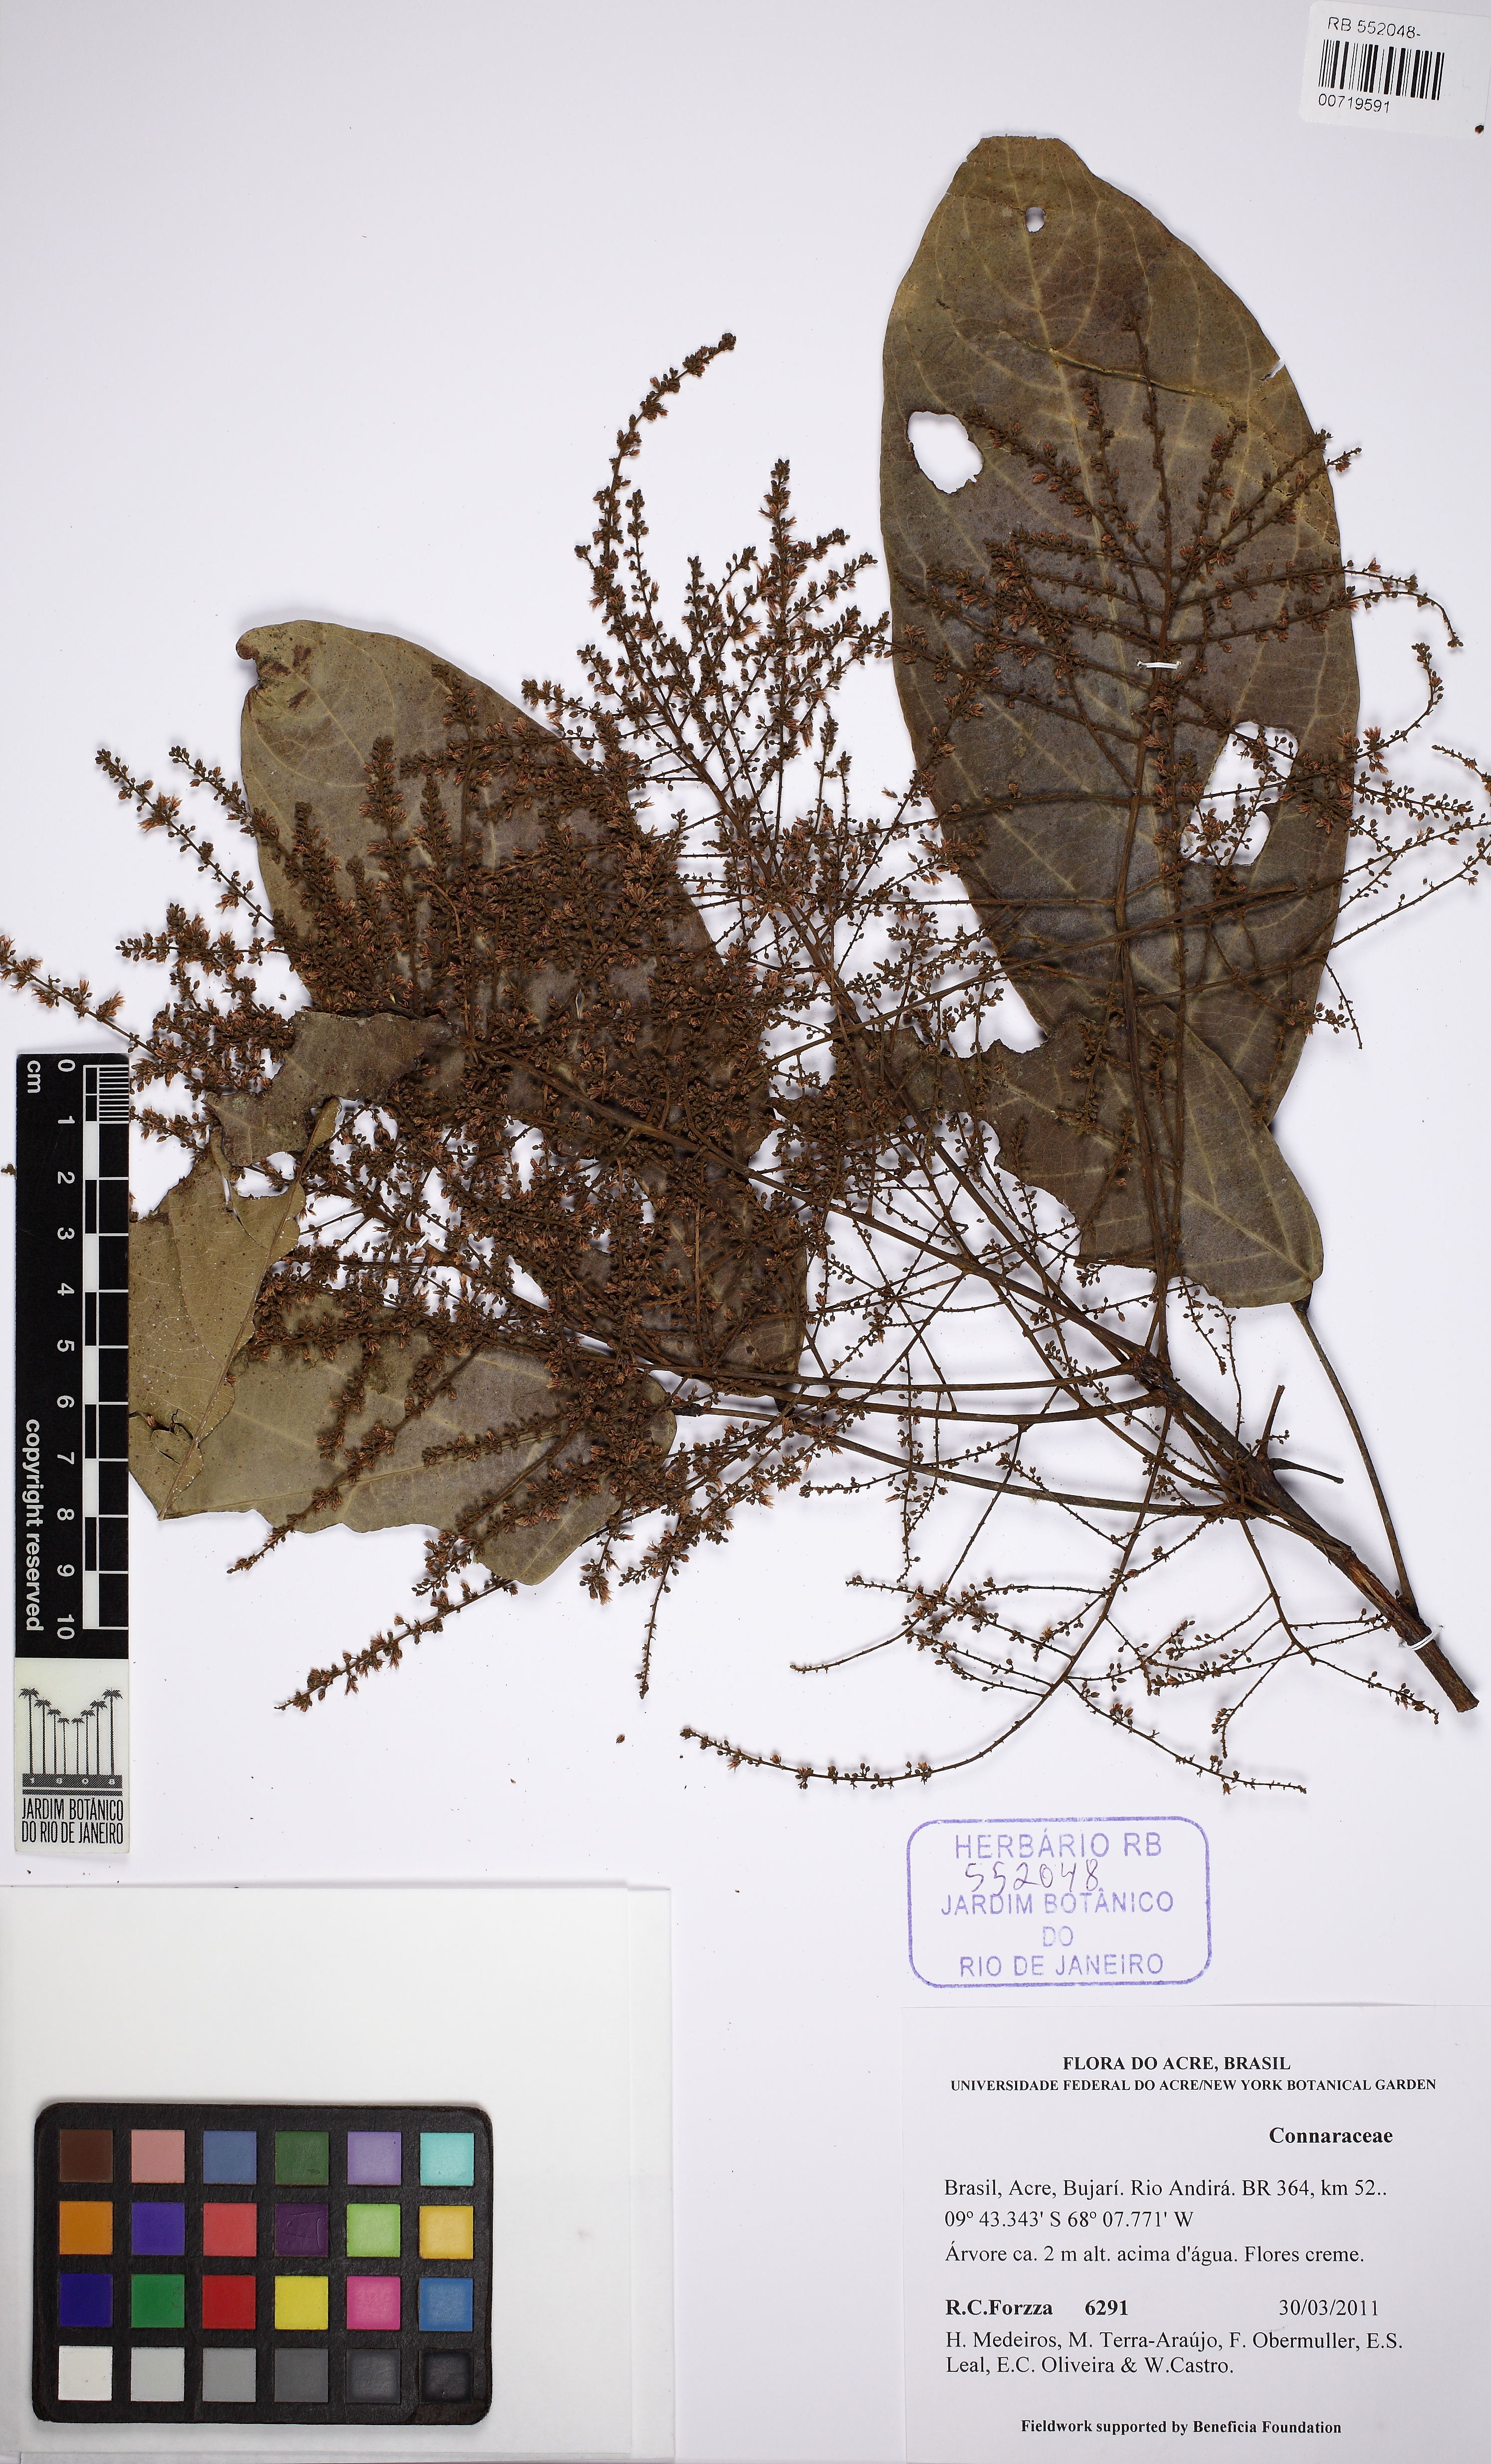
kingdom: Plantae
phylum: Tracheophyta
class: Magnoliopsida
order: Oxalidales
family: Connaraceae
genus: Connarus
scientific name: Connarus ruber
